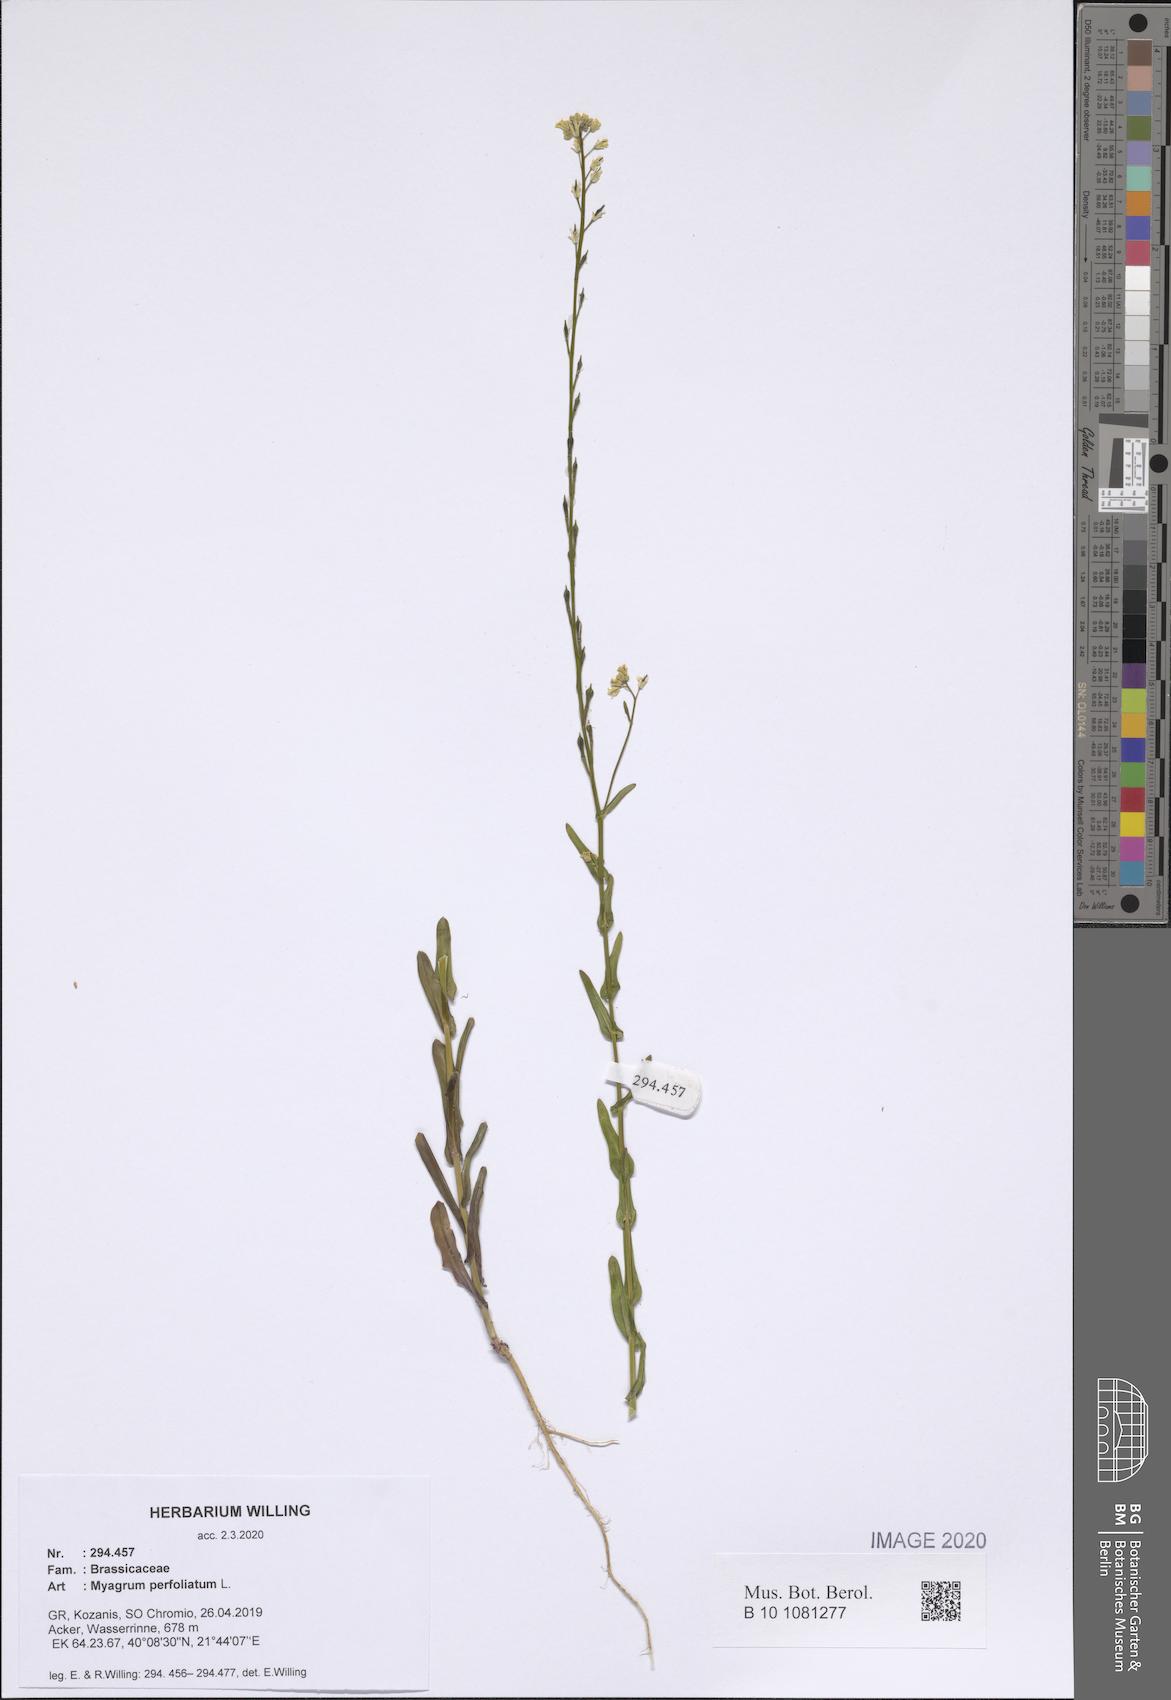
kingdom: Plantae
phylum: Tracheophyta
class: Magnoliopsida
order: Brassicales
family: Brassicaceae
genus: Myagrum
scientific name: Myagrum perfoliatum
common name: Mitre cress
